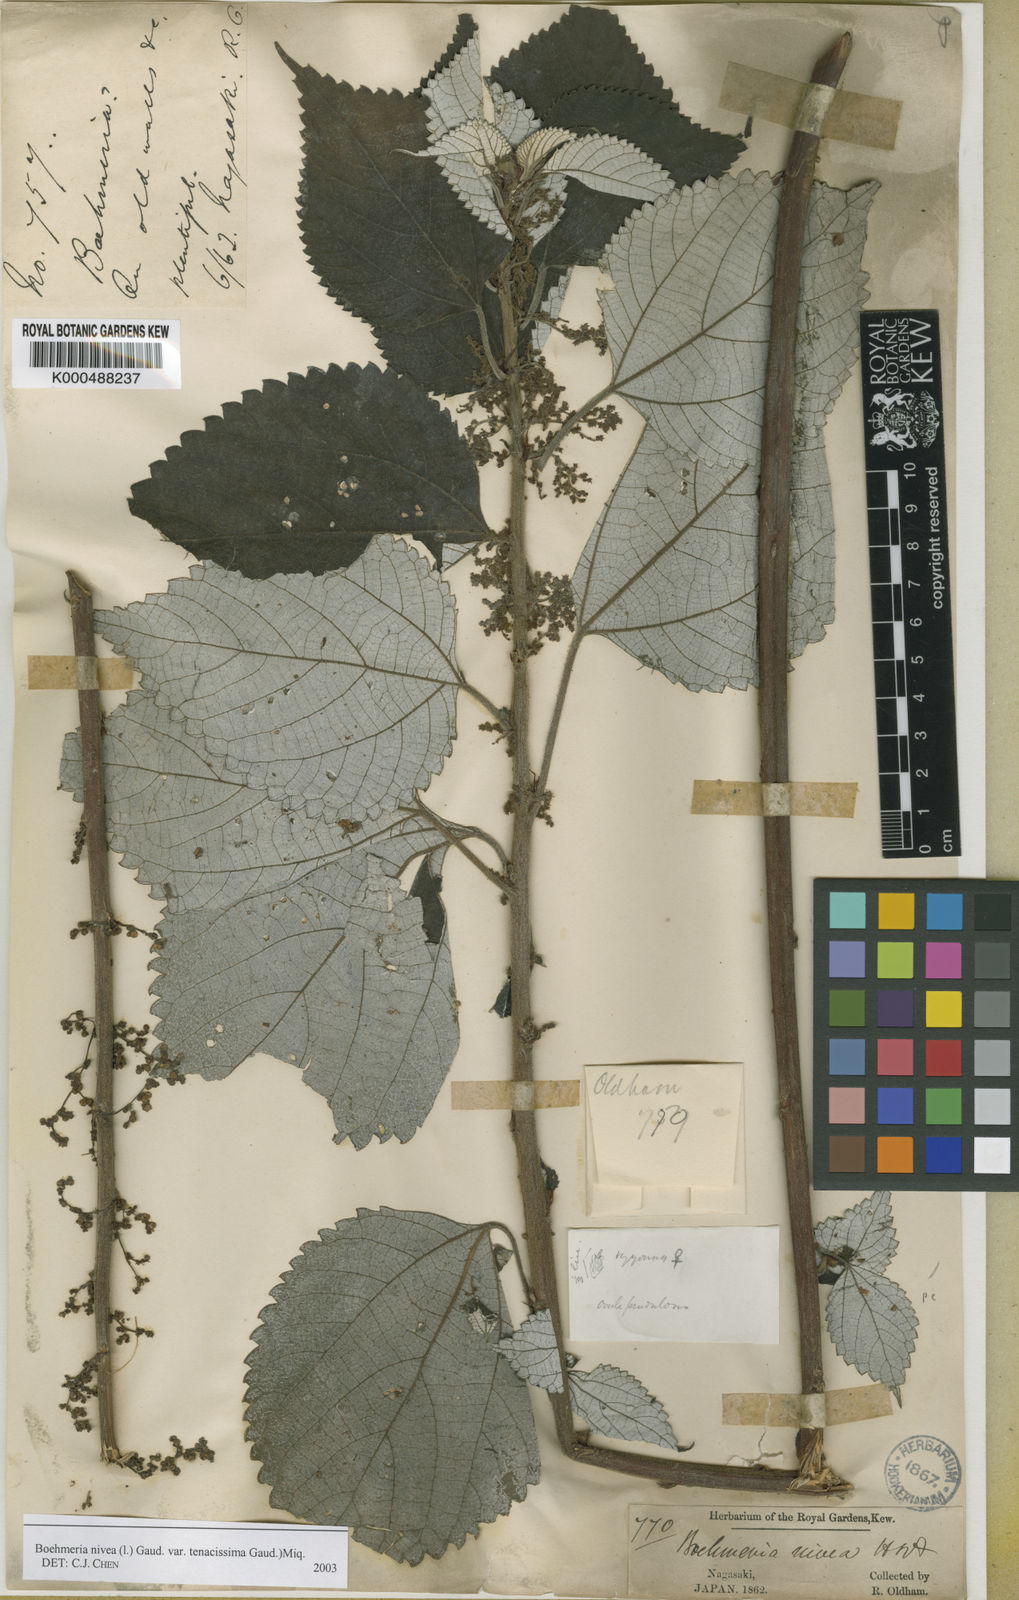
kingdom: Plantae
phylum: Tracheophyta
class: Magnoliopsida
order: Rosales
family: Urticaceae
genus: Boehmeria
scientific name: Boehmeria nivea
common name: Ramie chinese grass
